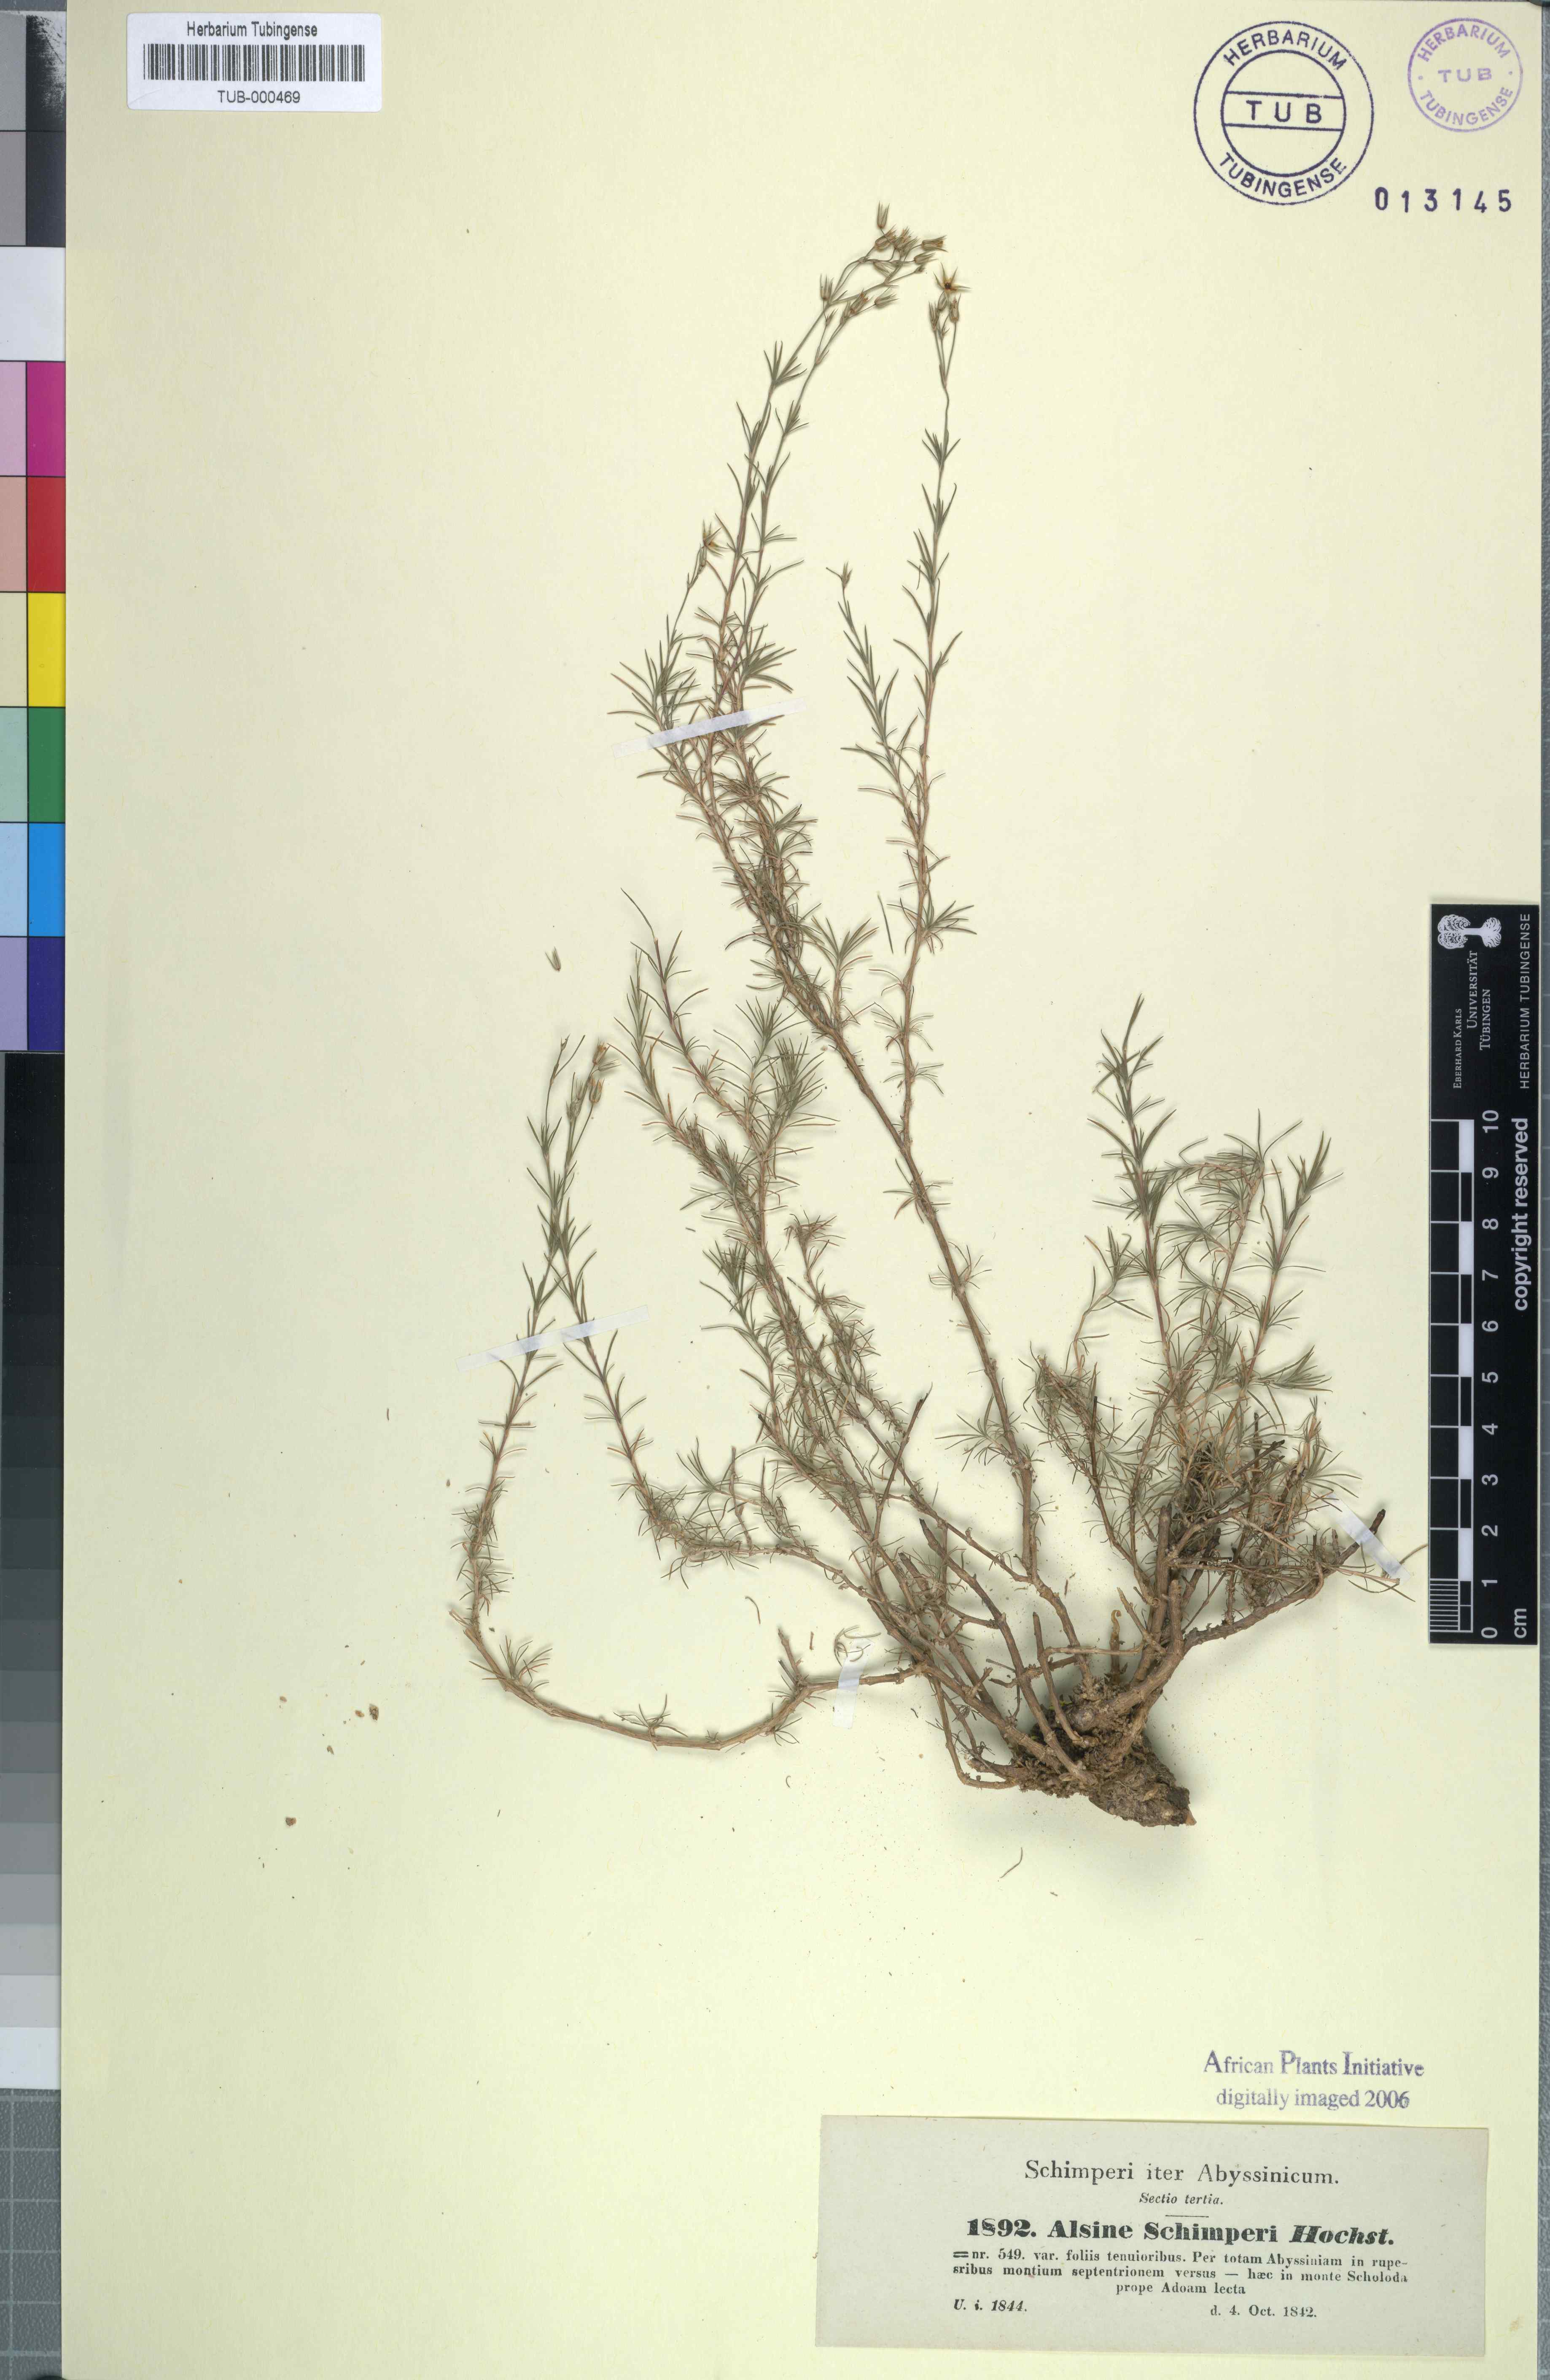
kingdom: Plantae
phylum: Tracheophyta
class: Magnoliopsida
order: Caryophyllales
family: Caryophyllaceae
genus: Minuartia
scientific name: Minuartia filifolia
